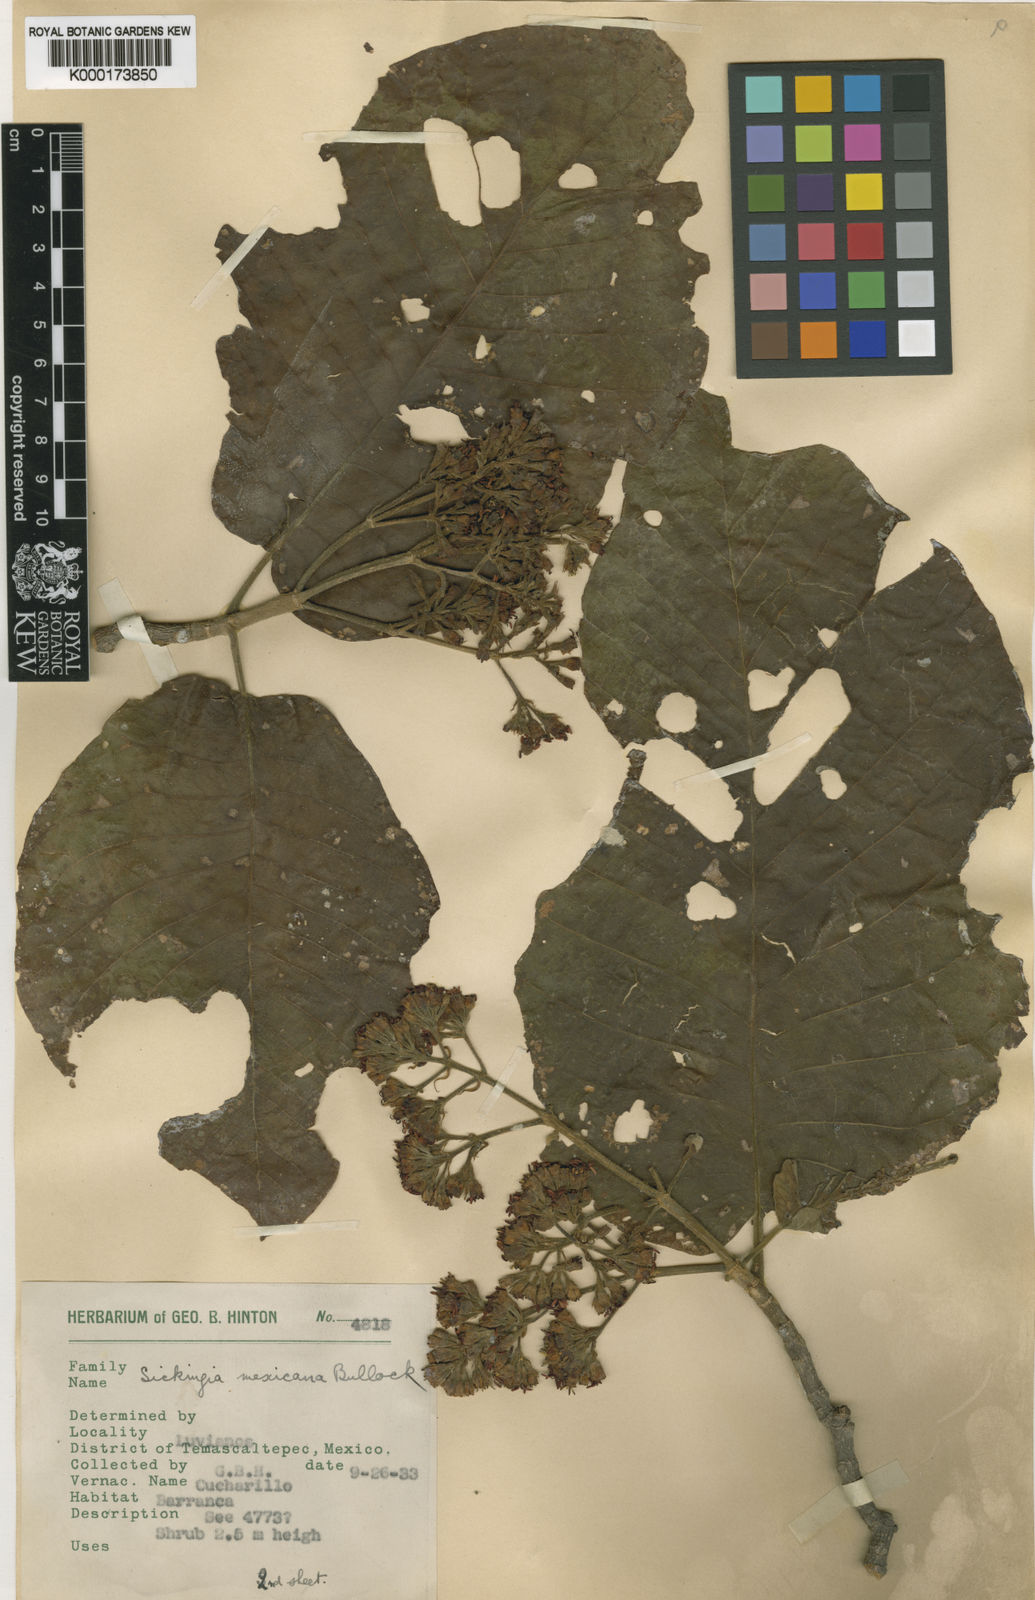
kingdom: Plantae
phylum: Tracheophyta
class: Magnoliopsida
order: Gentianales
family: Rubiaceae
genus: Simira
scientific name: Simira mexicana
